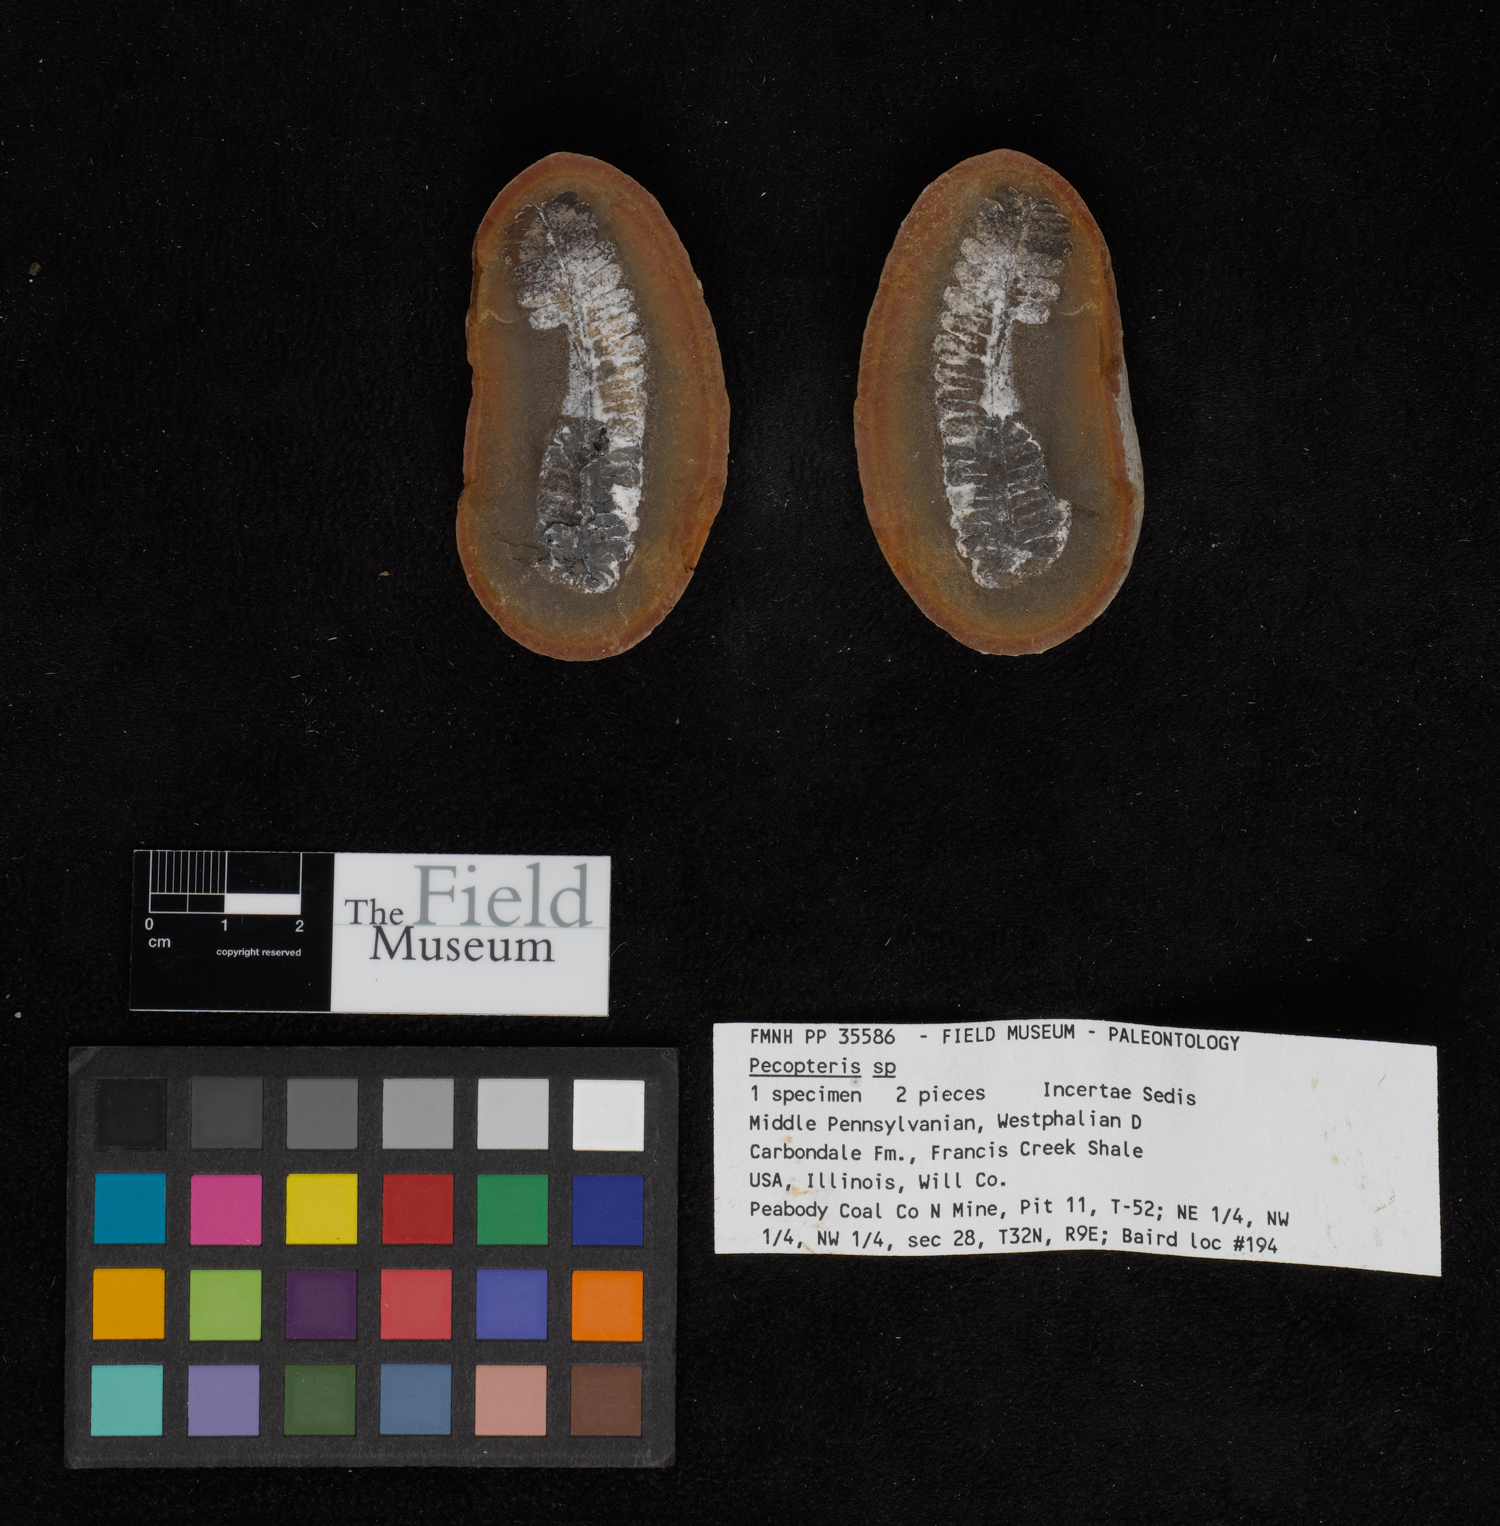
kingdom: Plantae
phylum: Tracheophyta
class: Polypodiopsida
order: Marattiales
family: Asterothecaceae
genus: Pecopteris
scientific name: Pecopteris
